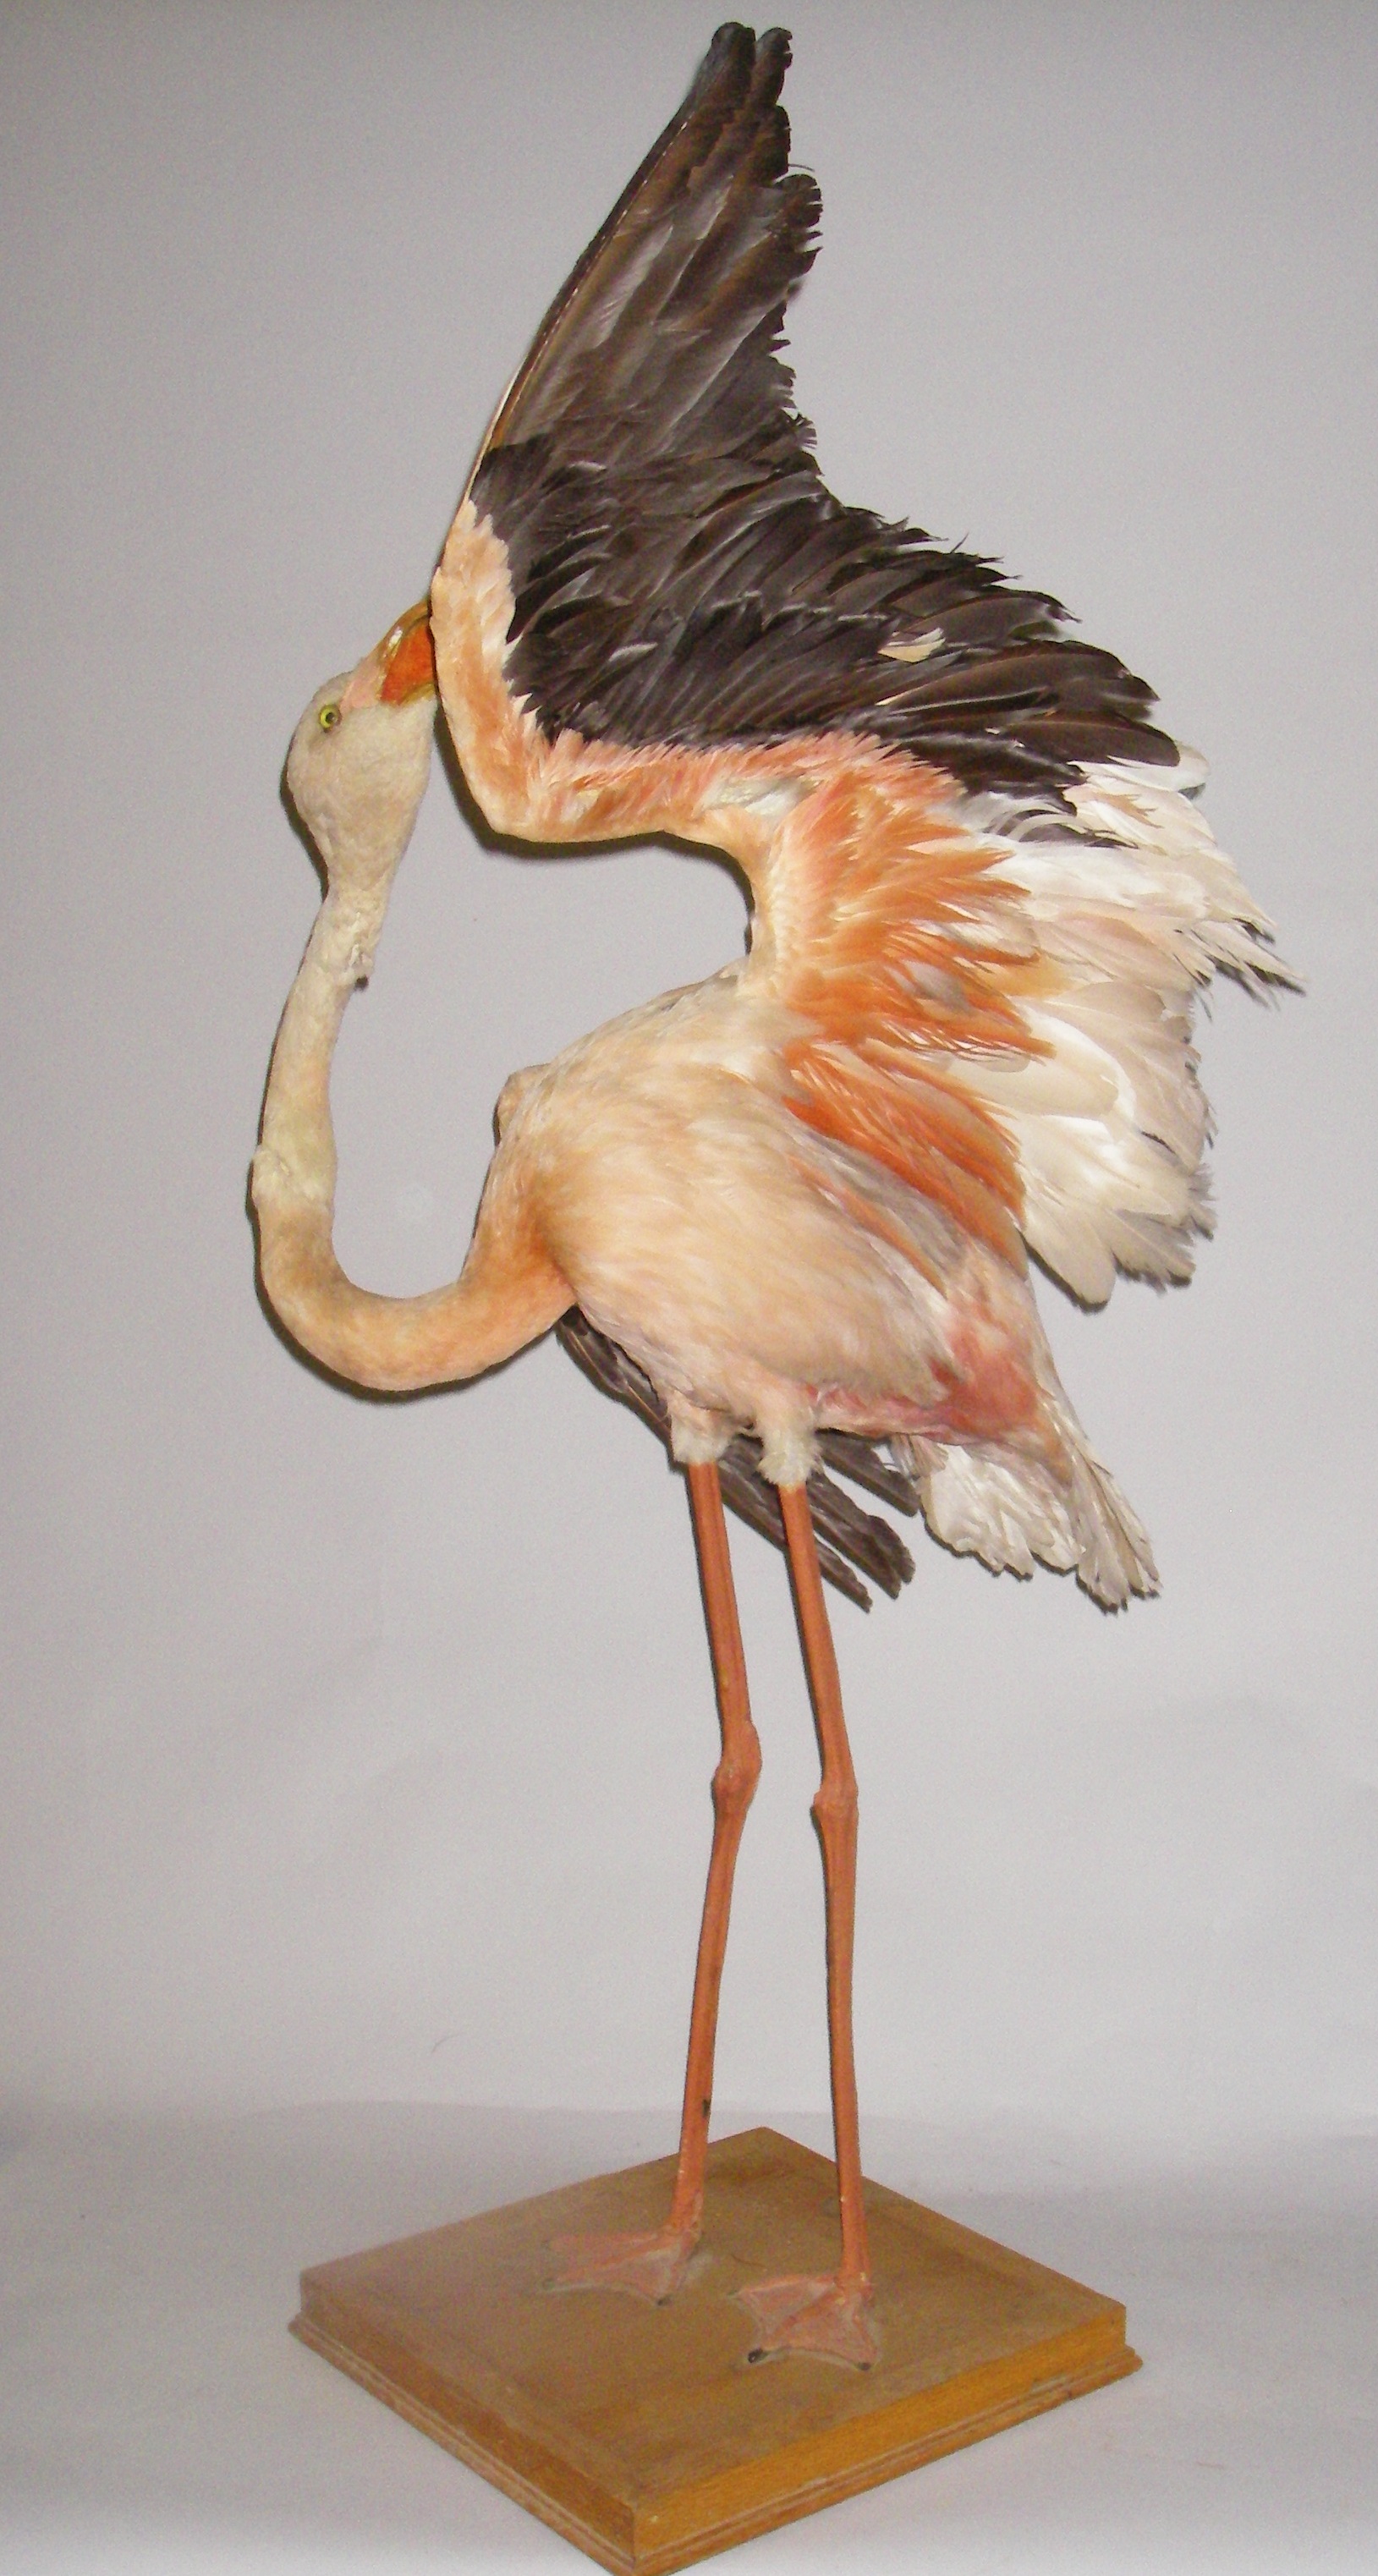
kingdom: Animalia
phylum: Chordata
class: Aves
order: Phoenicopteriformes
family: Phoenicopteridae
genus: Phoenicopterus
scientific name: Phoenicopterus roseus
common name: Greater flamingo
